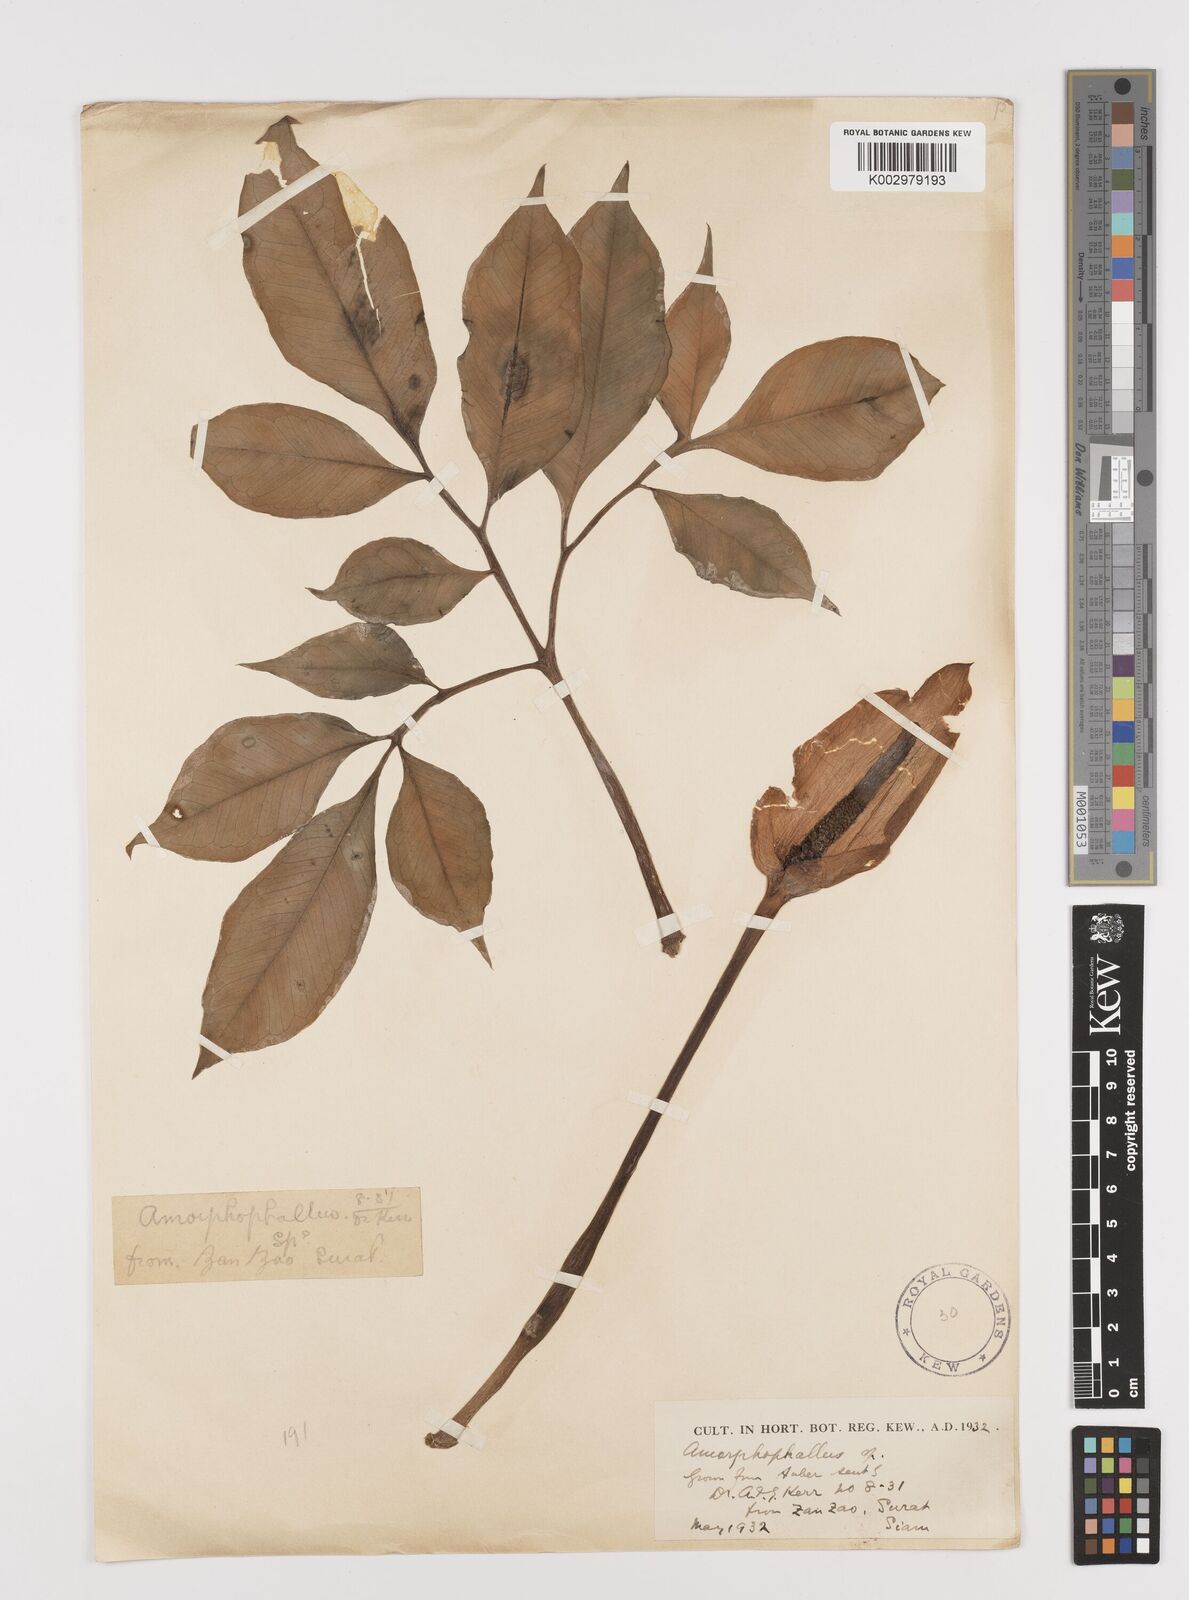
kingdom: Plantae
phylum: Tracheophyta
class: Liliopsida
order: Alismatales
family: Araceae
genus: Amorphophallus
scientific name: Amorphophallus longituberosus
